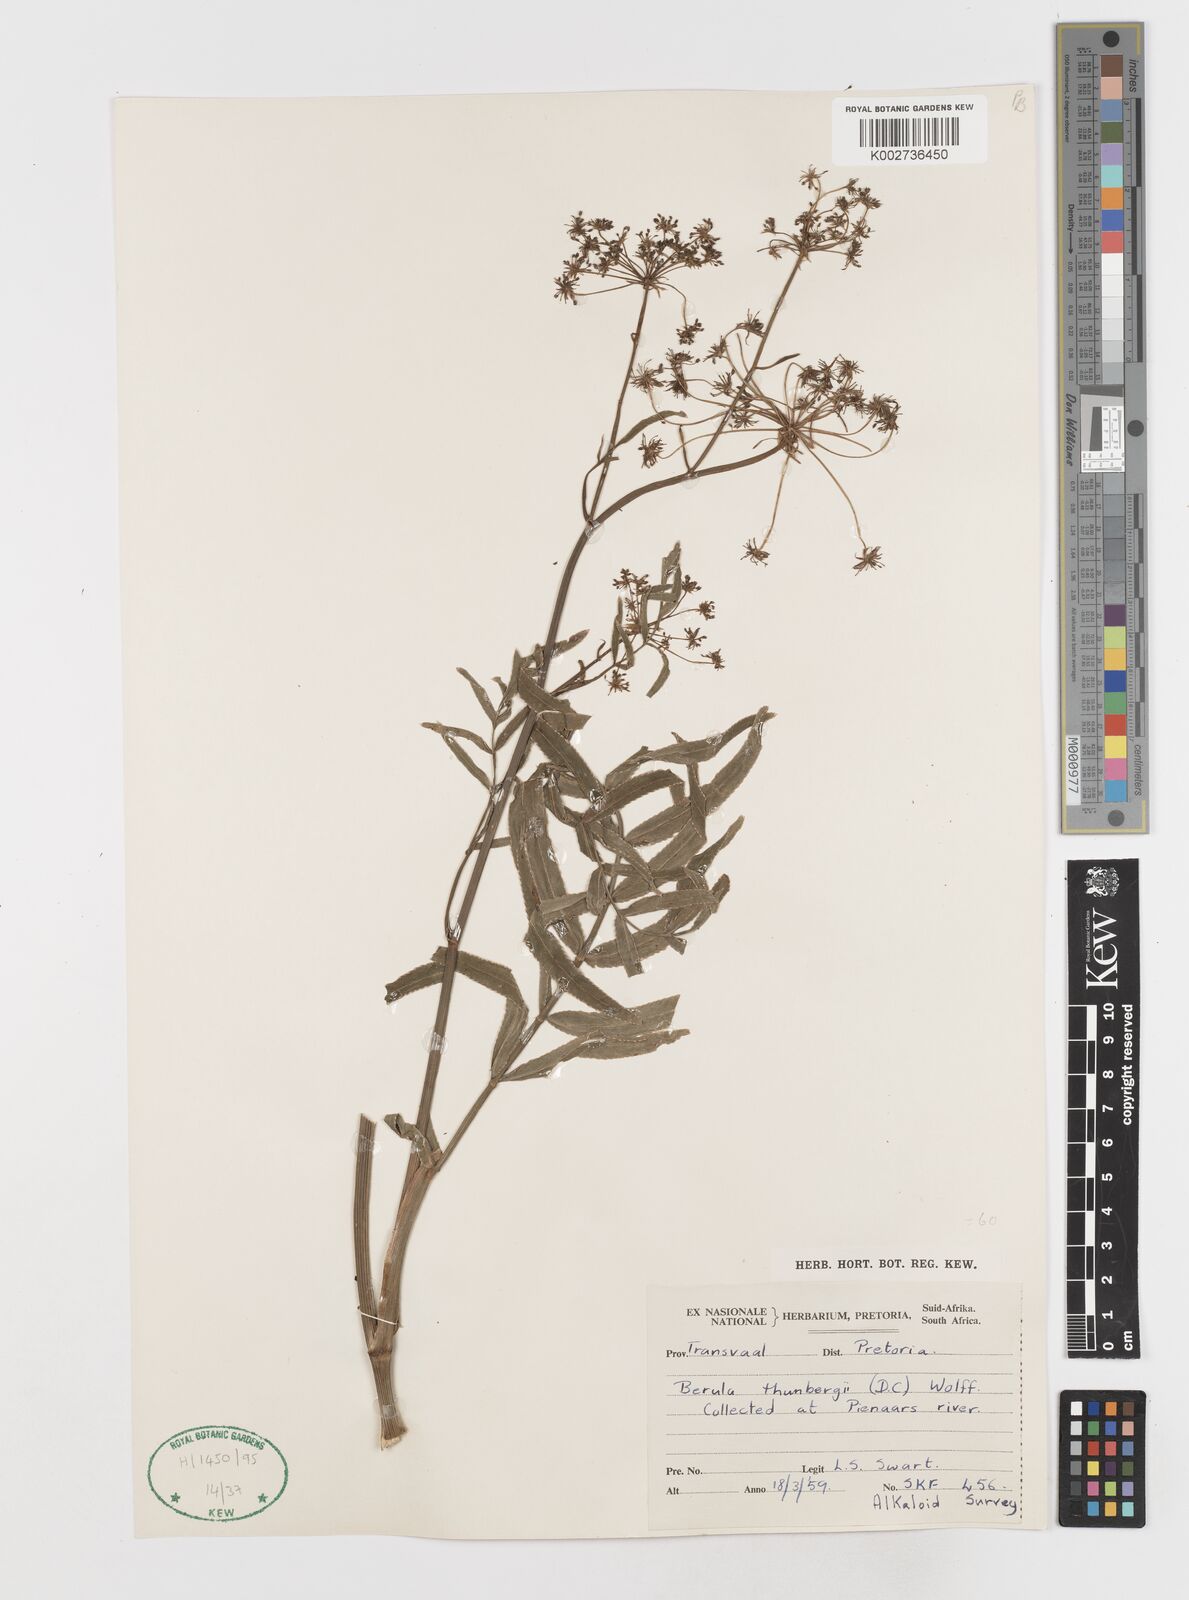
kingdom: Plantae
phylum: Tracheophyta
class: Magnoliopsida
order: Apiales
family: Apiaceae
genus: Berula
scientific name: Berula repanda
